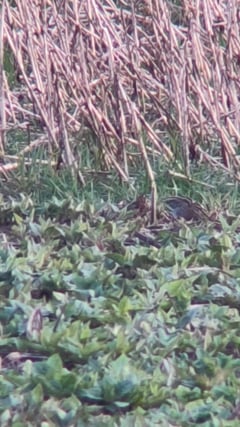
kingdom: Animalia
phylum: Chordata
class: Aves
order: Charadriiformes
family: Scolopacidae
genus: Gallinago
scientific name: Gallinago gallinago
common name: Common snipe
